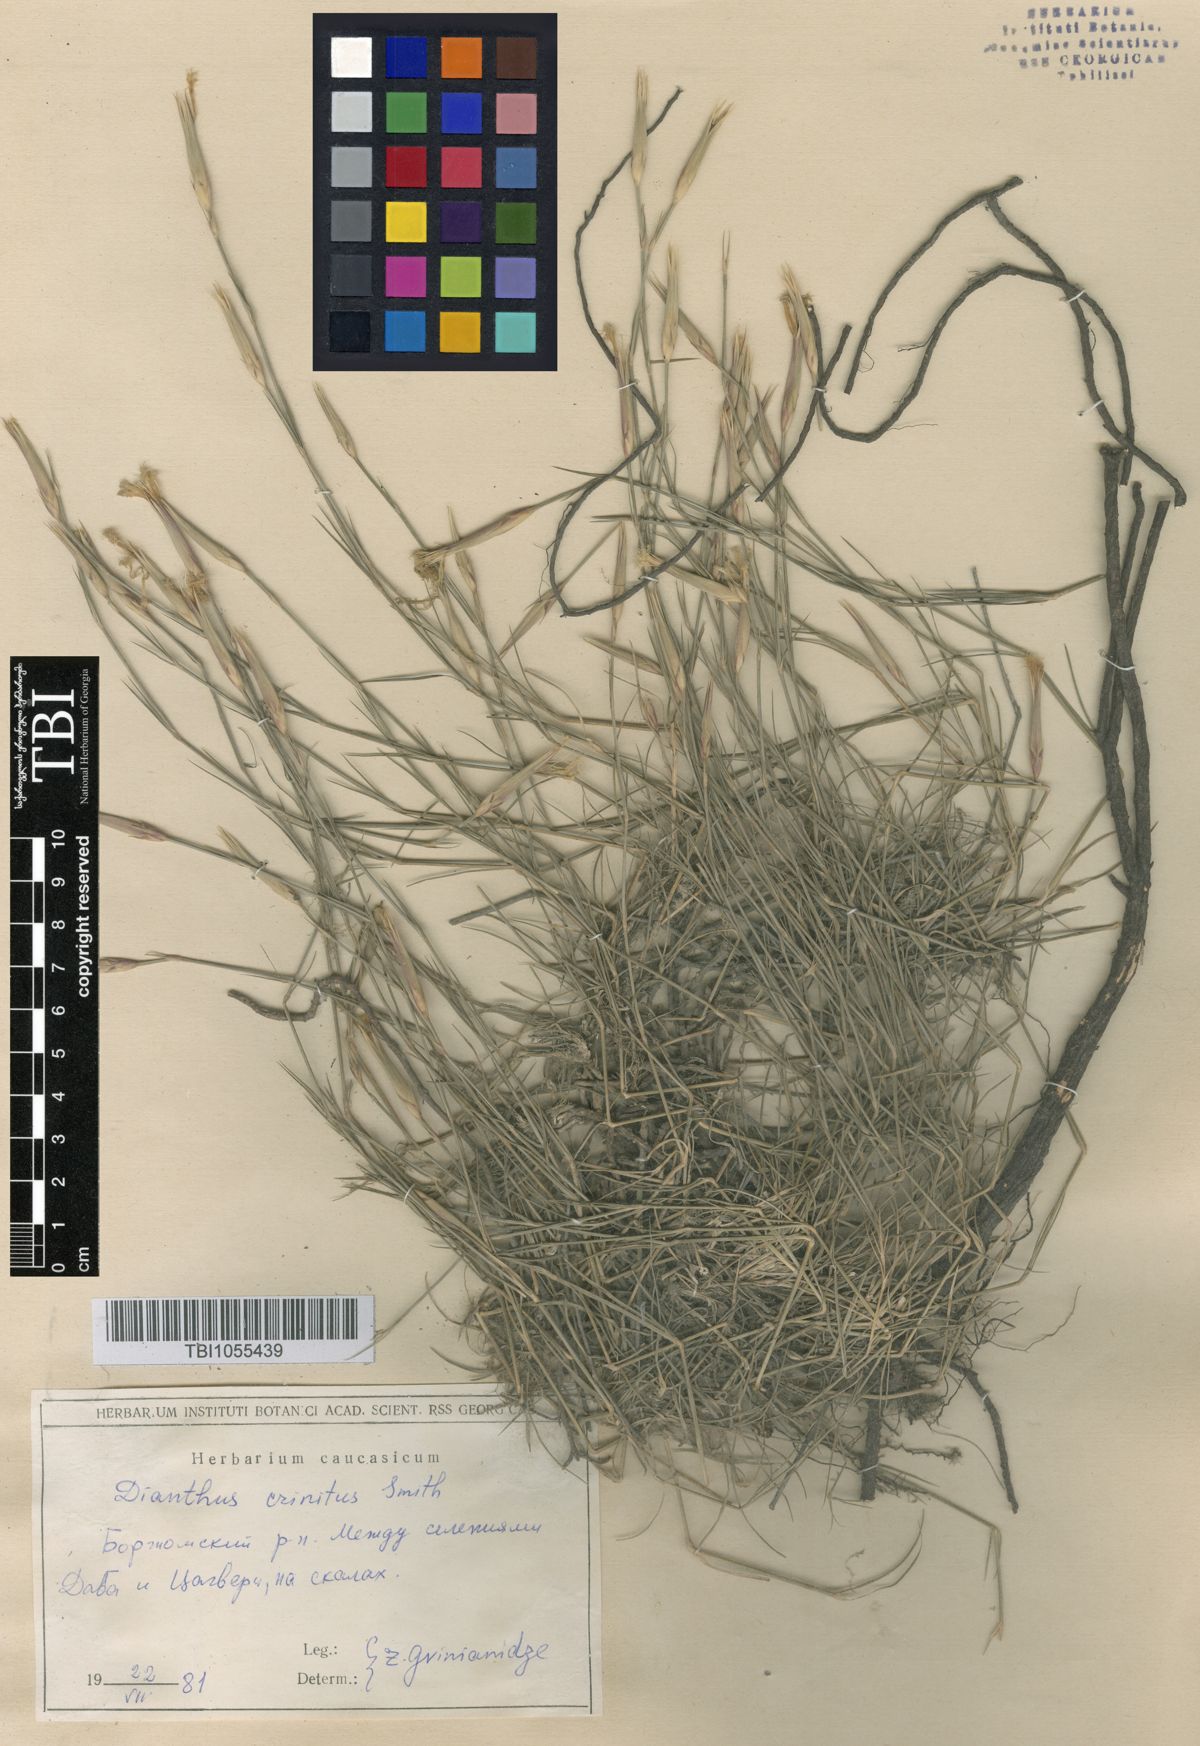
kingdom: Plantae
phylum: Tracheophyta
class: Magnoliopsida
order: Caryophyllales
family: Caryophyllaceae
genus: Dianthus
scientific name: Dianthus crinitus
